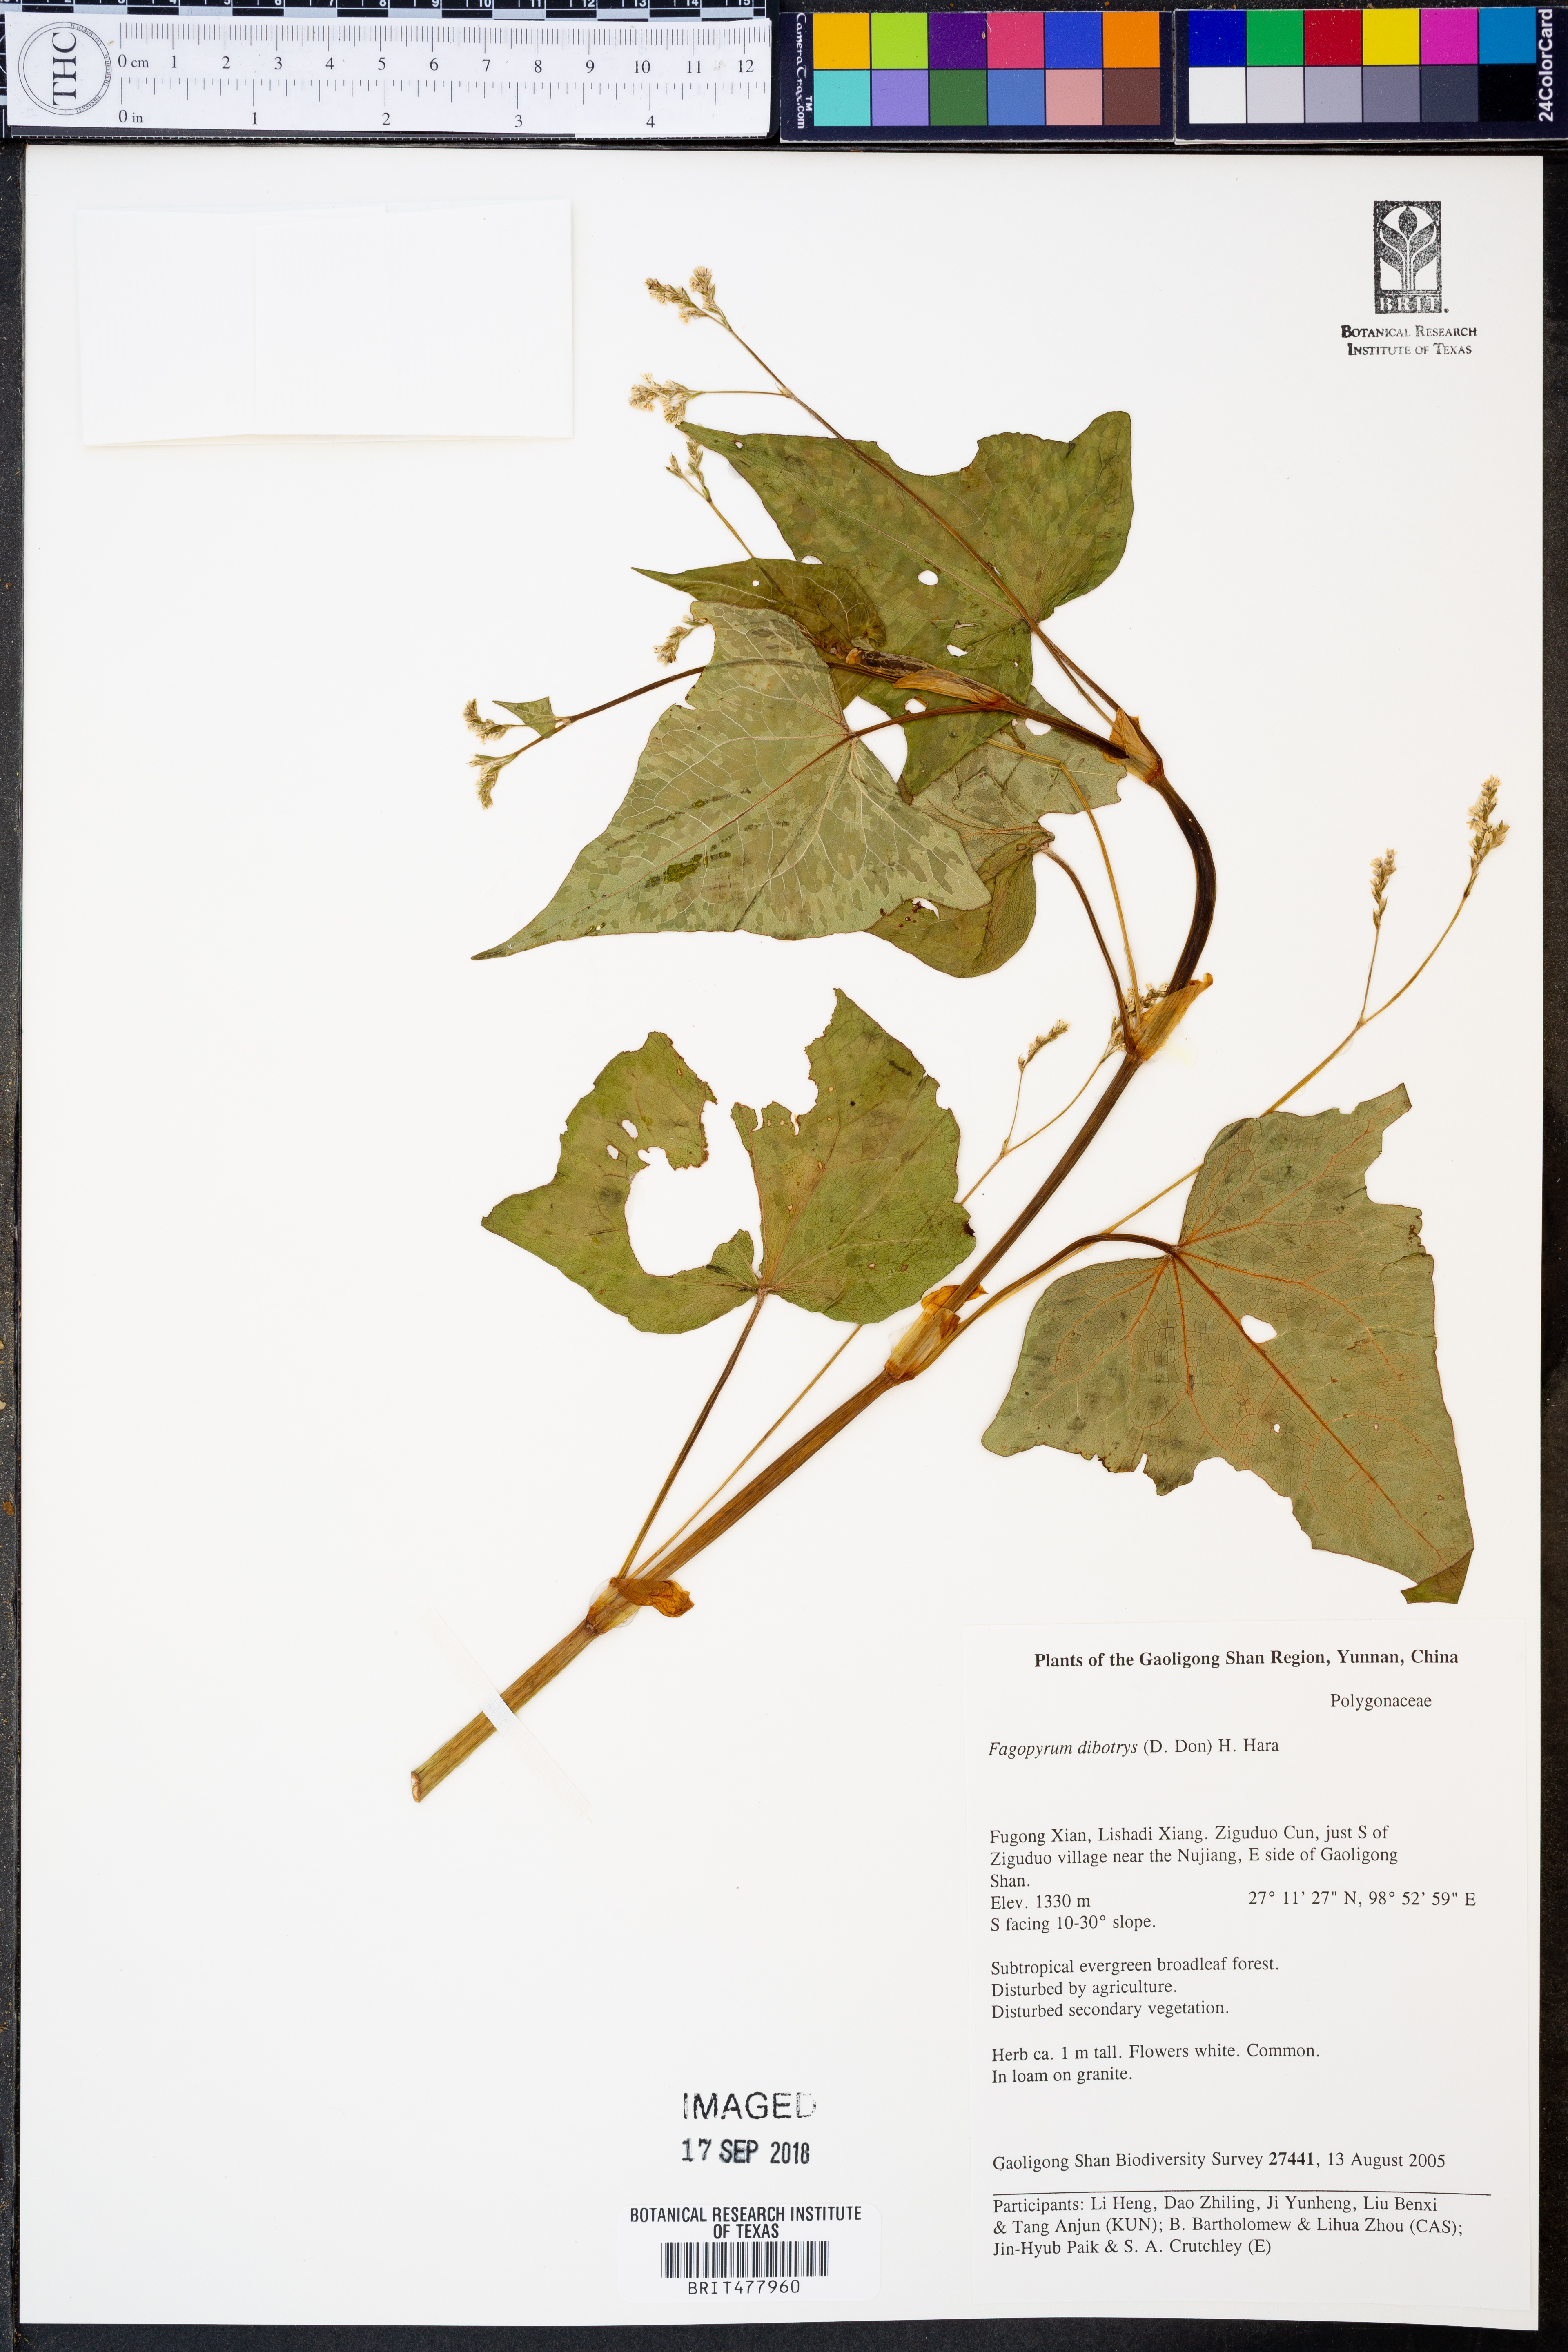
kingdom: Plantae
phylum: Tracheophyta
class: Magnoliopsida
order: Caryophyllales
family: Polygonaceae
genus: Fagopyrum
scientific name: Fagopyrum cymosum
